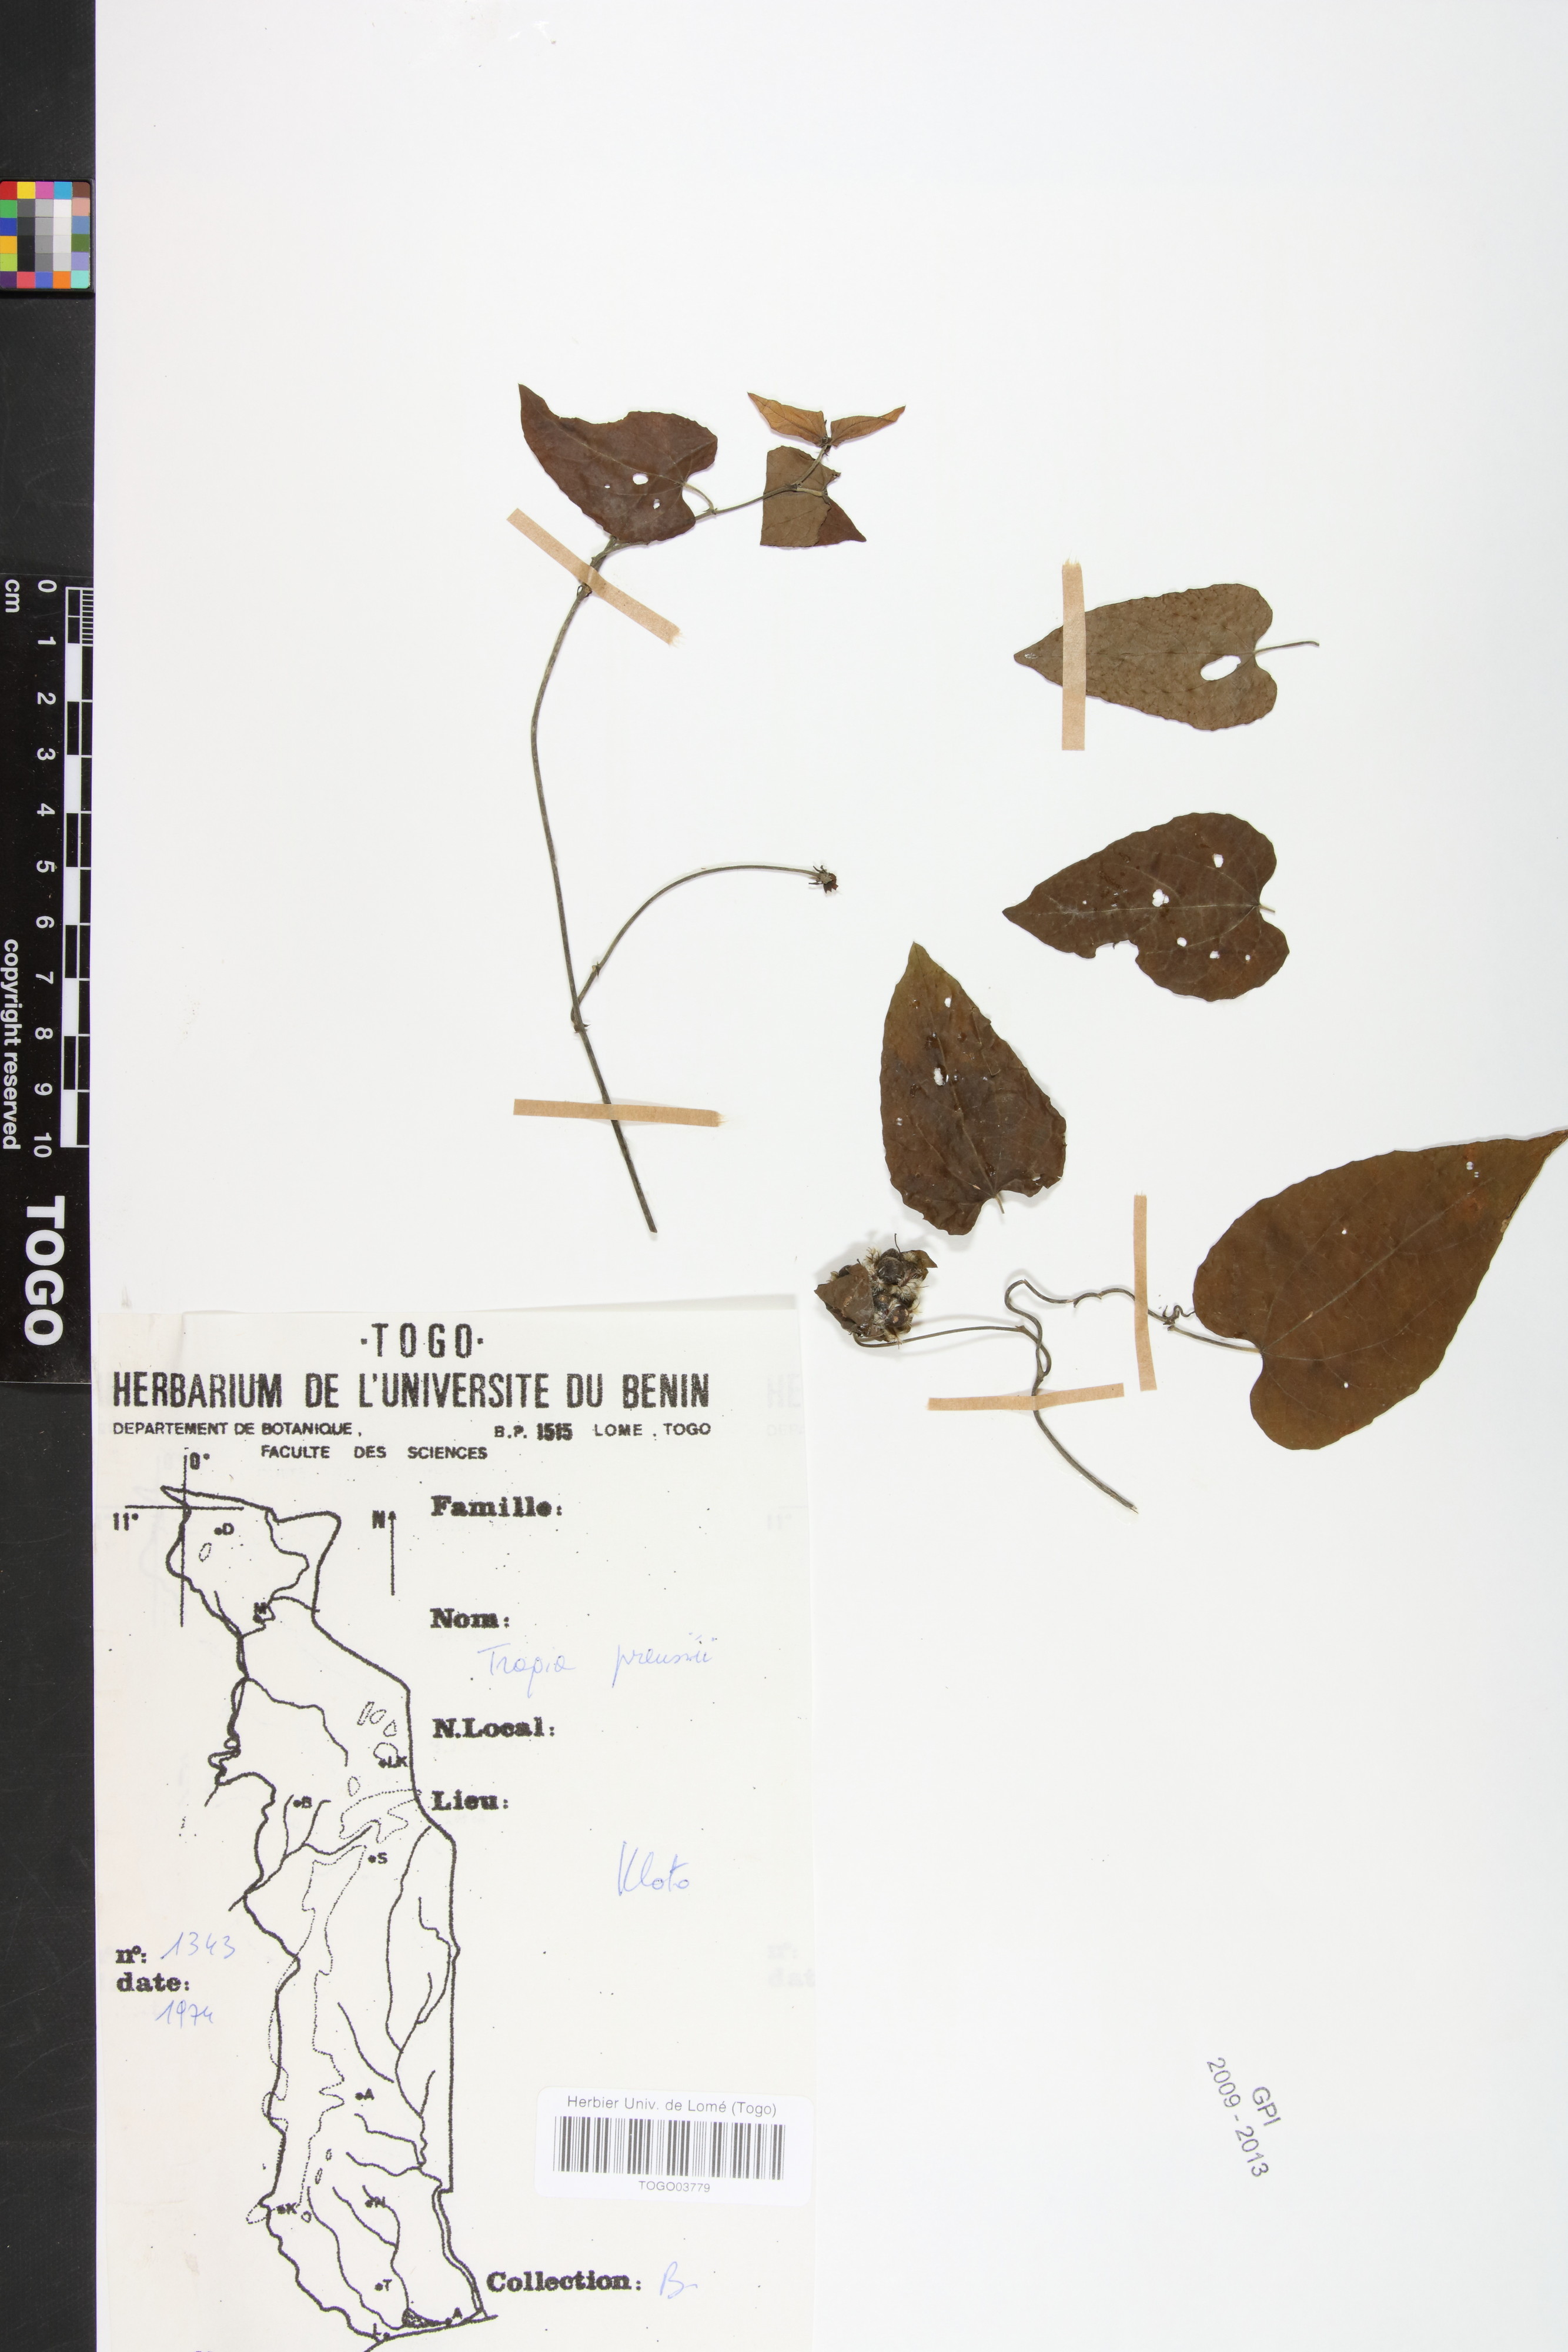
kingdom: Plantae
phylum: Tracheophyta
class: Magnoliopsida
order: Malpighiales
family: Euphorbiaceae
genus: Tragia
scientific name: Tragia preussii
